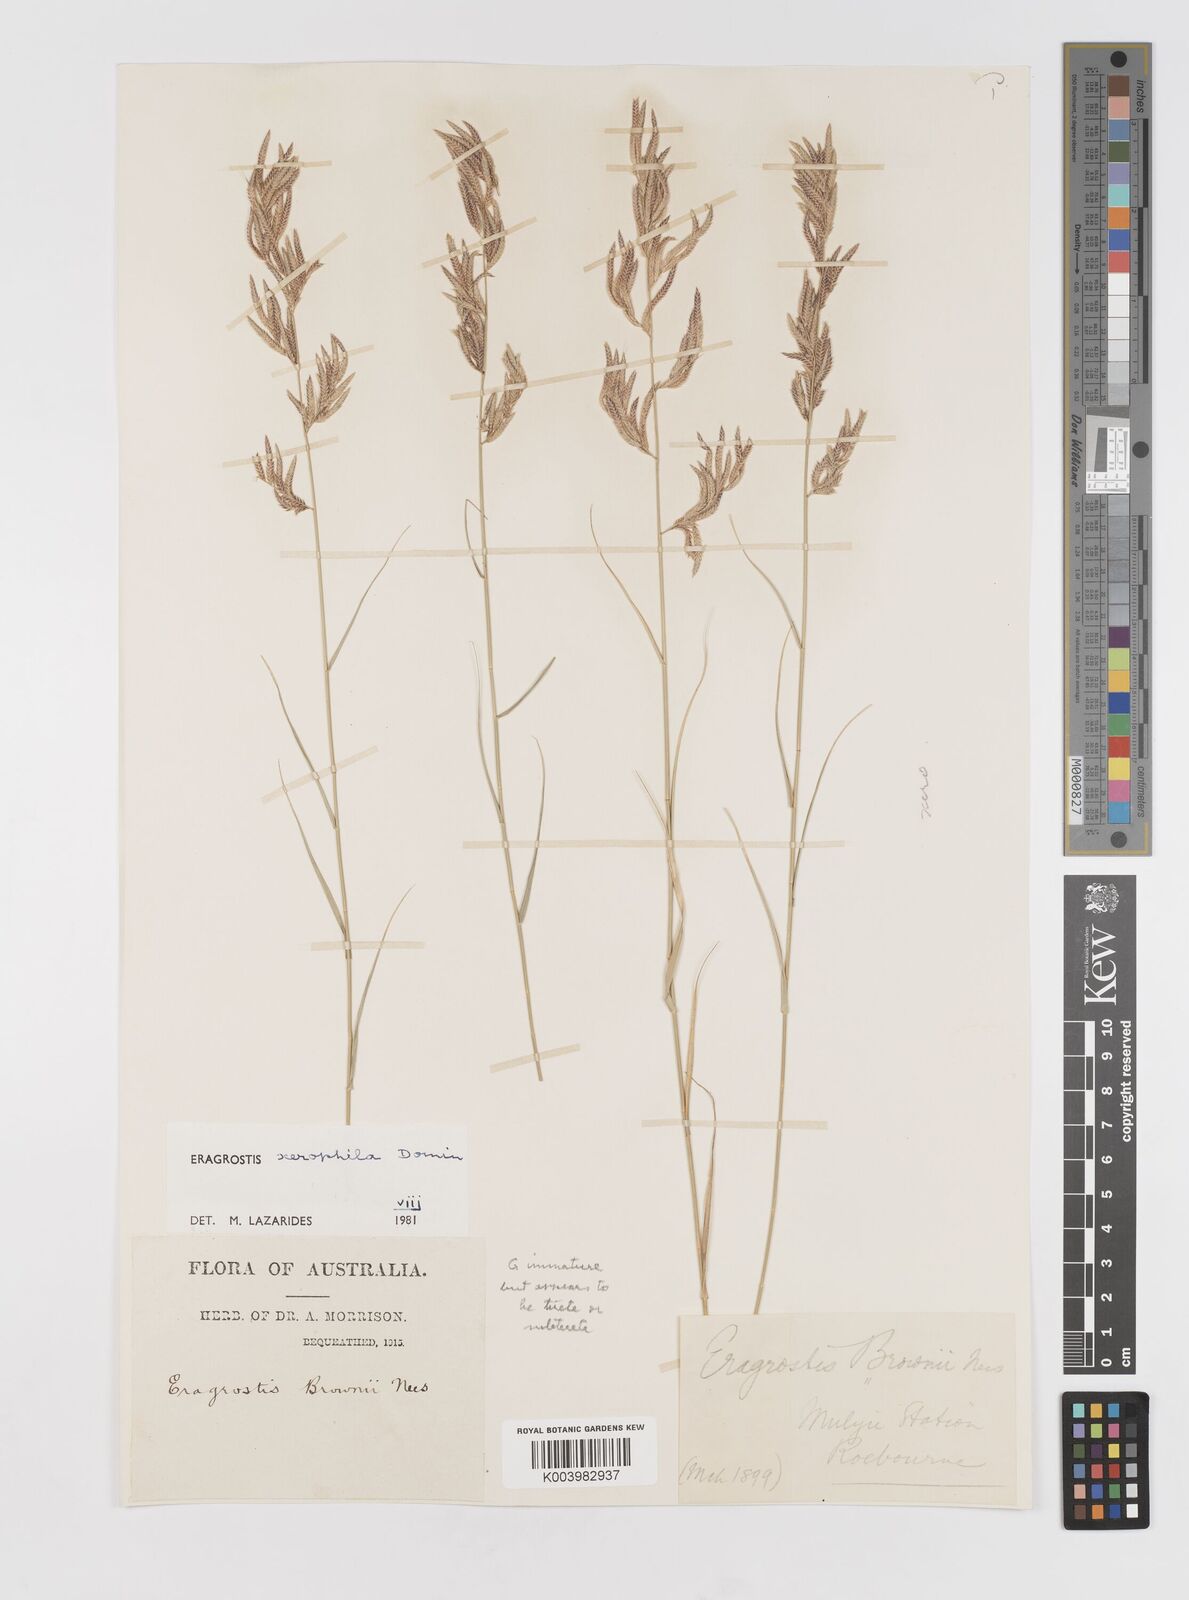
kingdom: Plantae
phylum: Tracheophyta
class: Liliopsida
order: Poales
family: Poaceae
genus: Eragrostis
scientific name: Eragrostis xerophila
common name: Wire wandarrie grass
